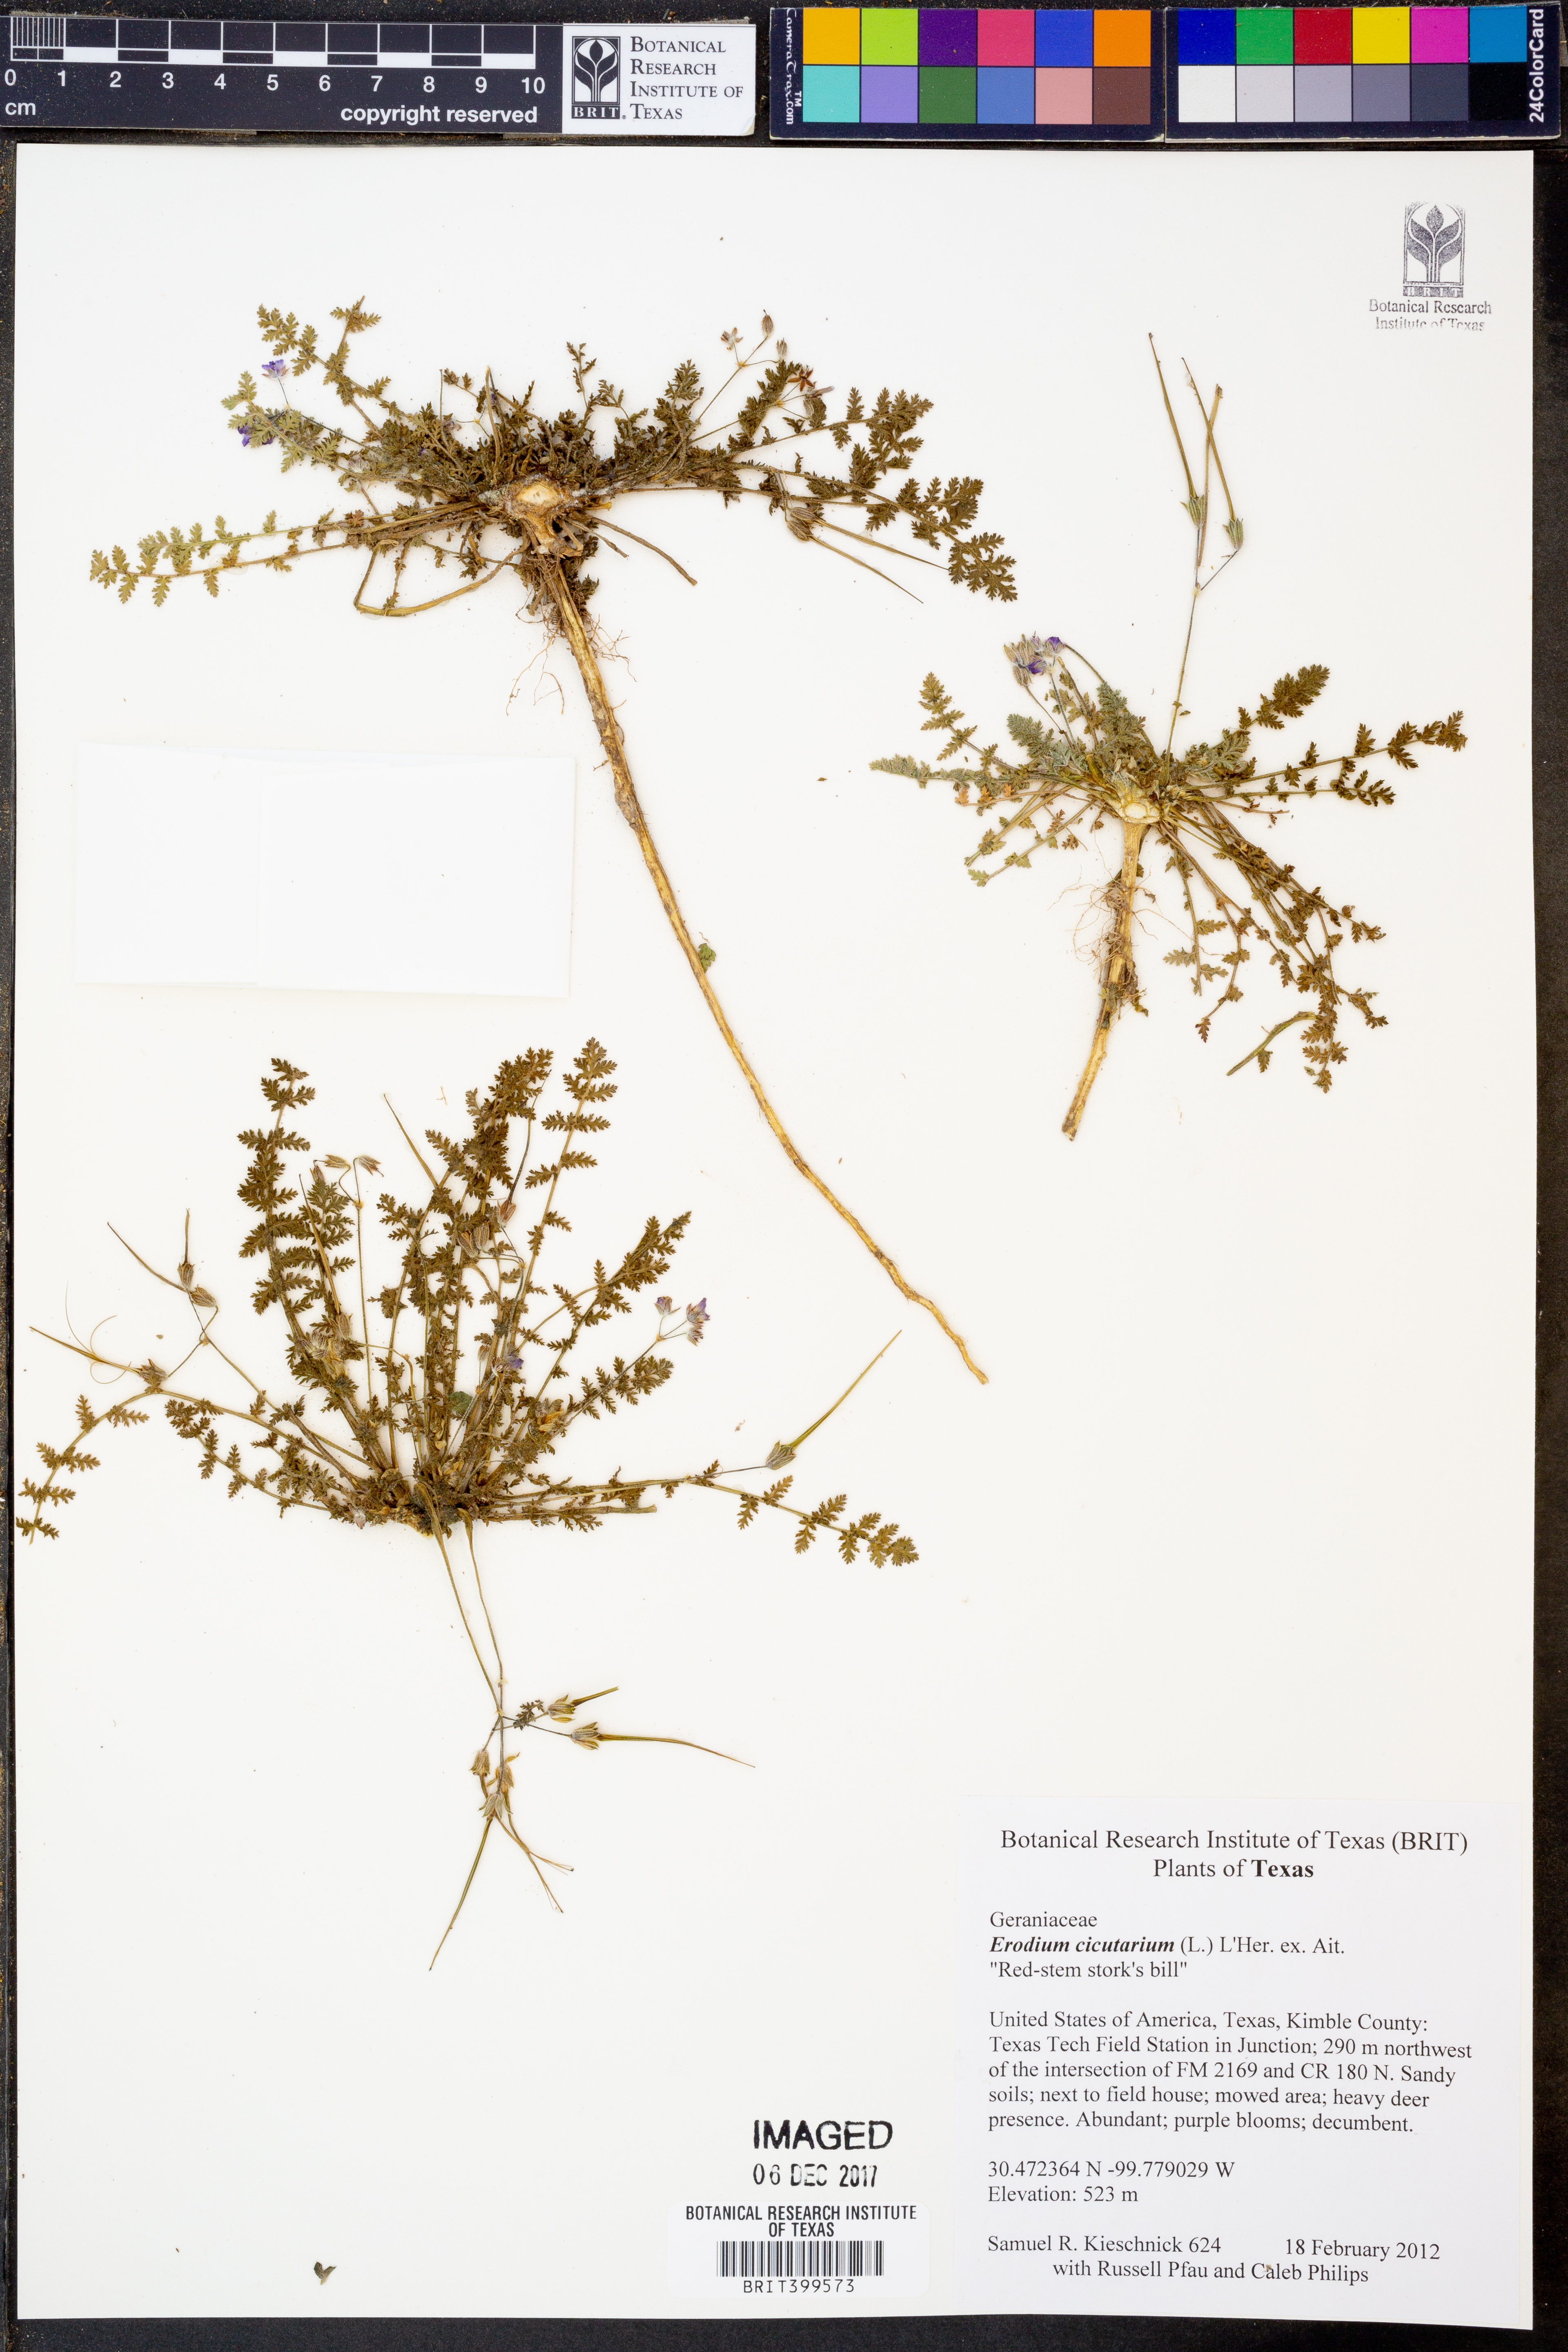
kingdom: Plantae
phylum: Tracheophyta
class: Magnoliopsida
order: Geraniales
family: Geraniaceae
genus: Erodium
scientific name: Erodium cicutarium
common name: Common stork's-bill
